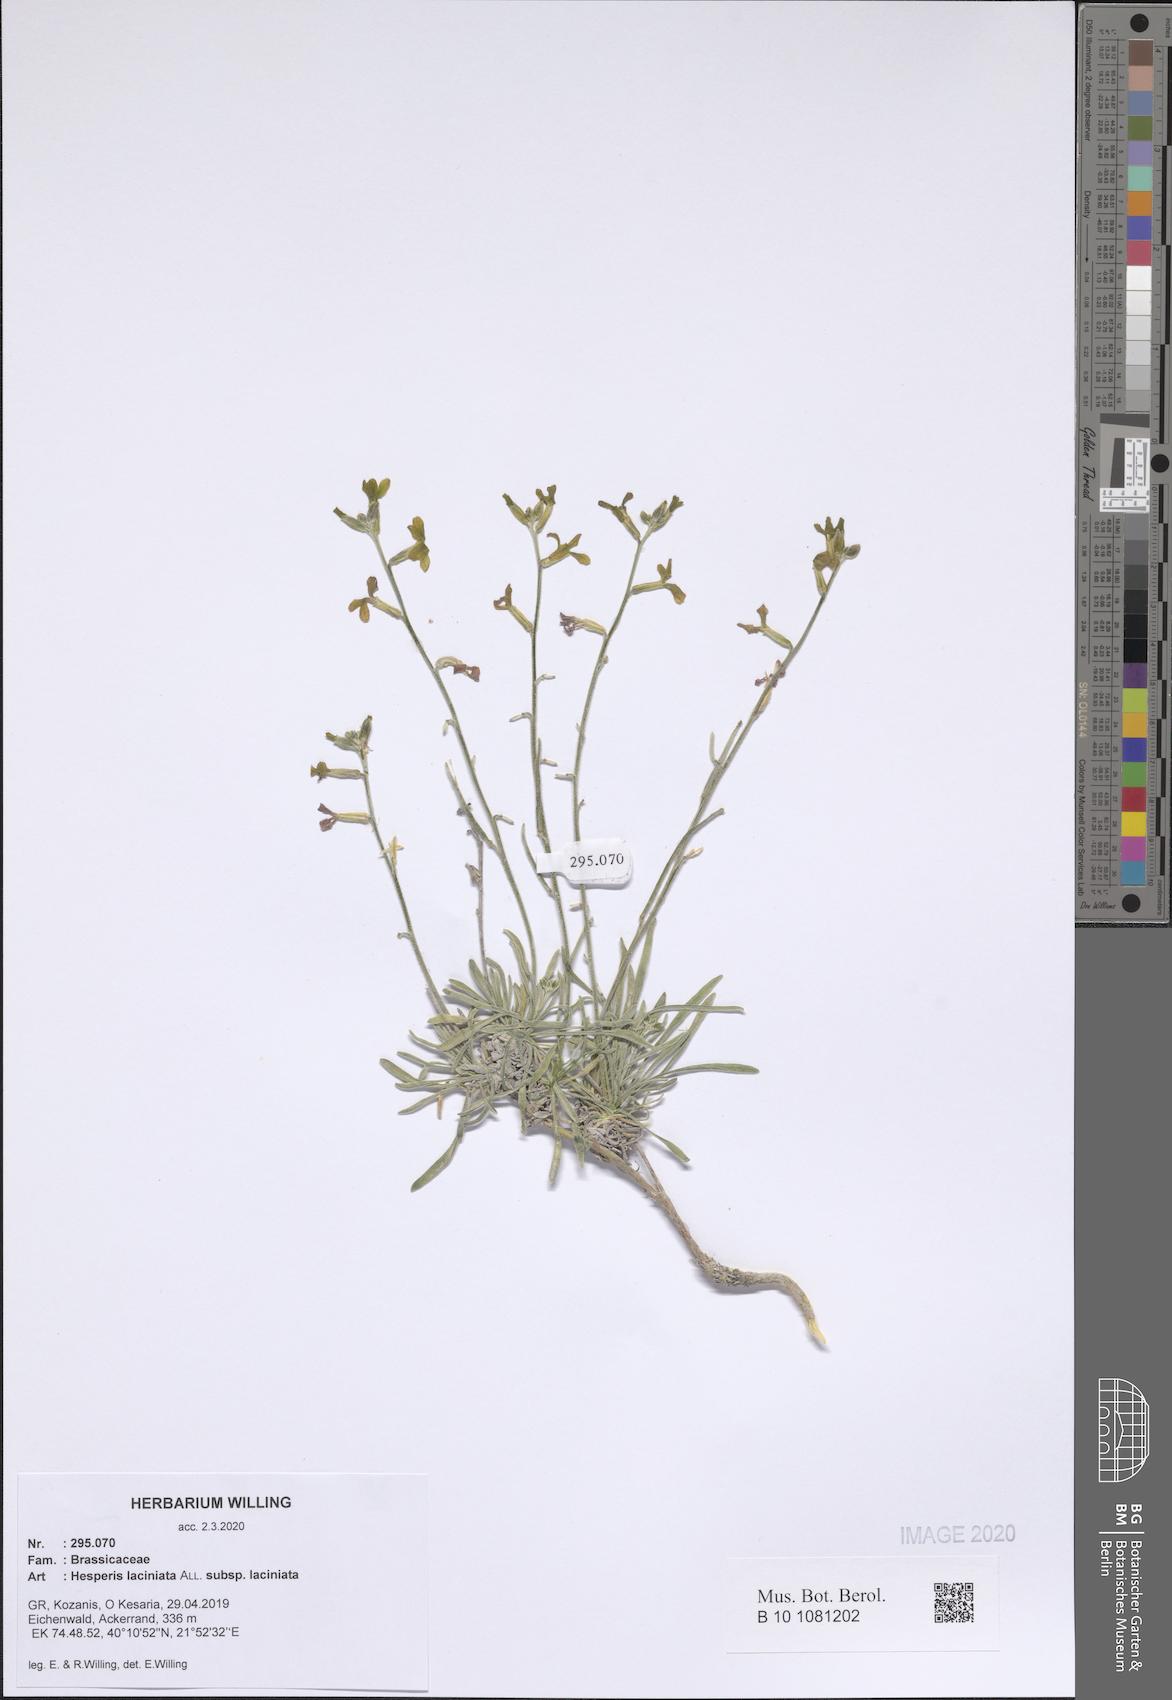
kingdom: Plantae
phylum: Tracheophyta
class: Magnoliopsida
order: Brassicales
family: Brassicaceae
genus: Hesperis
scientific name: Hesperis laciniata
